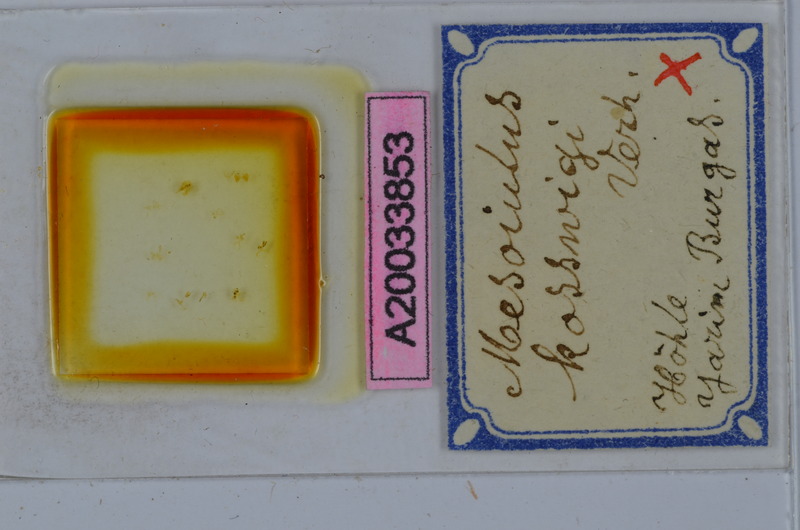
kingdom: Animalia
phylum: Arthropoda
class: Diplopoda
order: Julida
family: Julidae
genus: Mesoiulus
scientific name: Mesoiulus kosswigi
